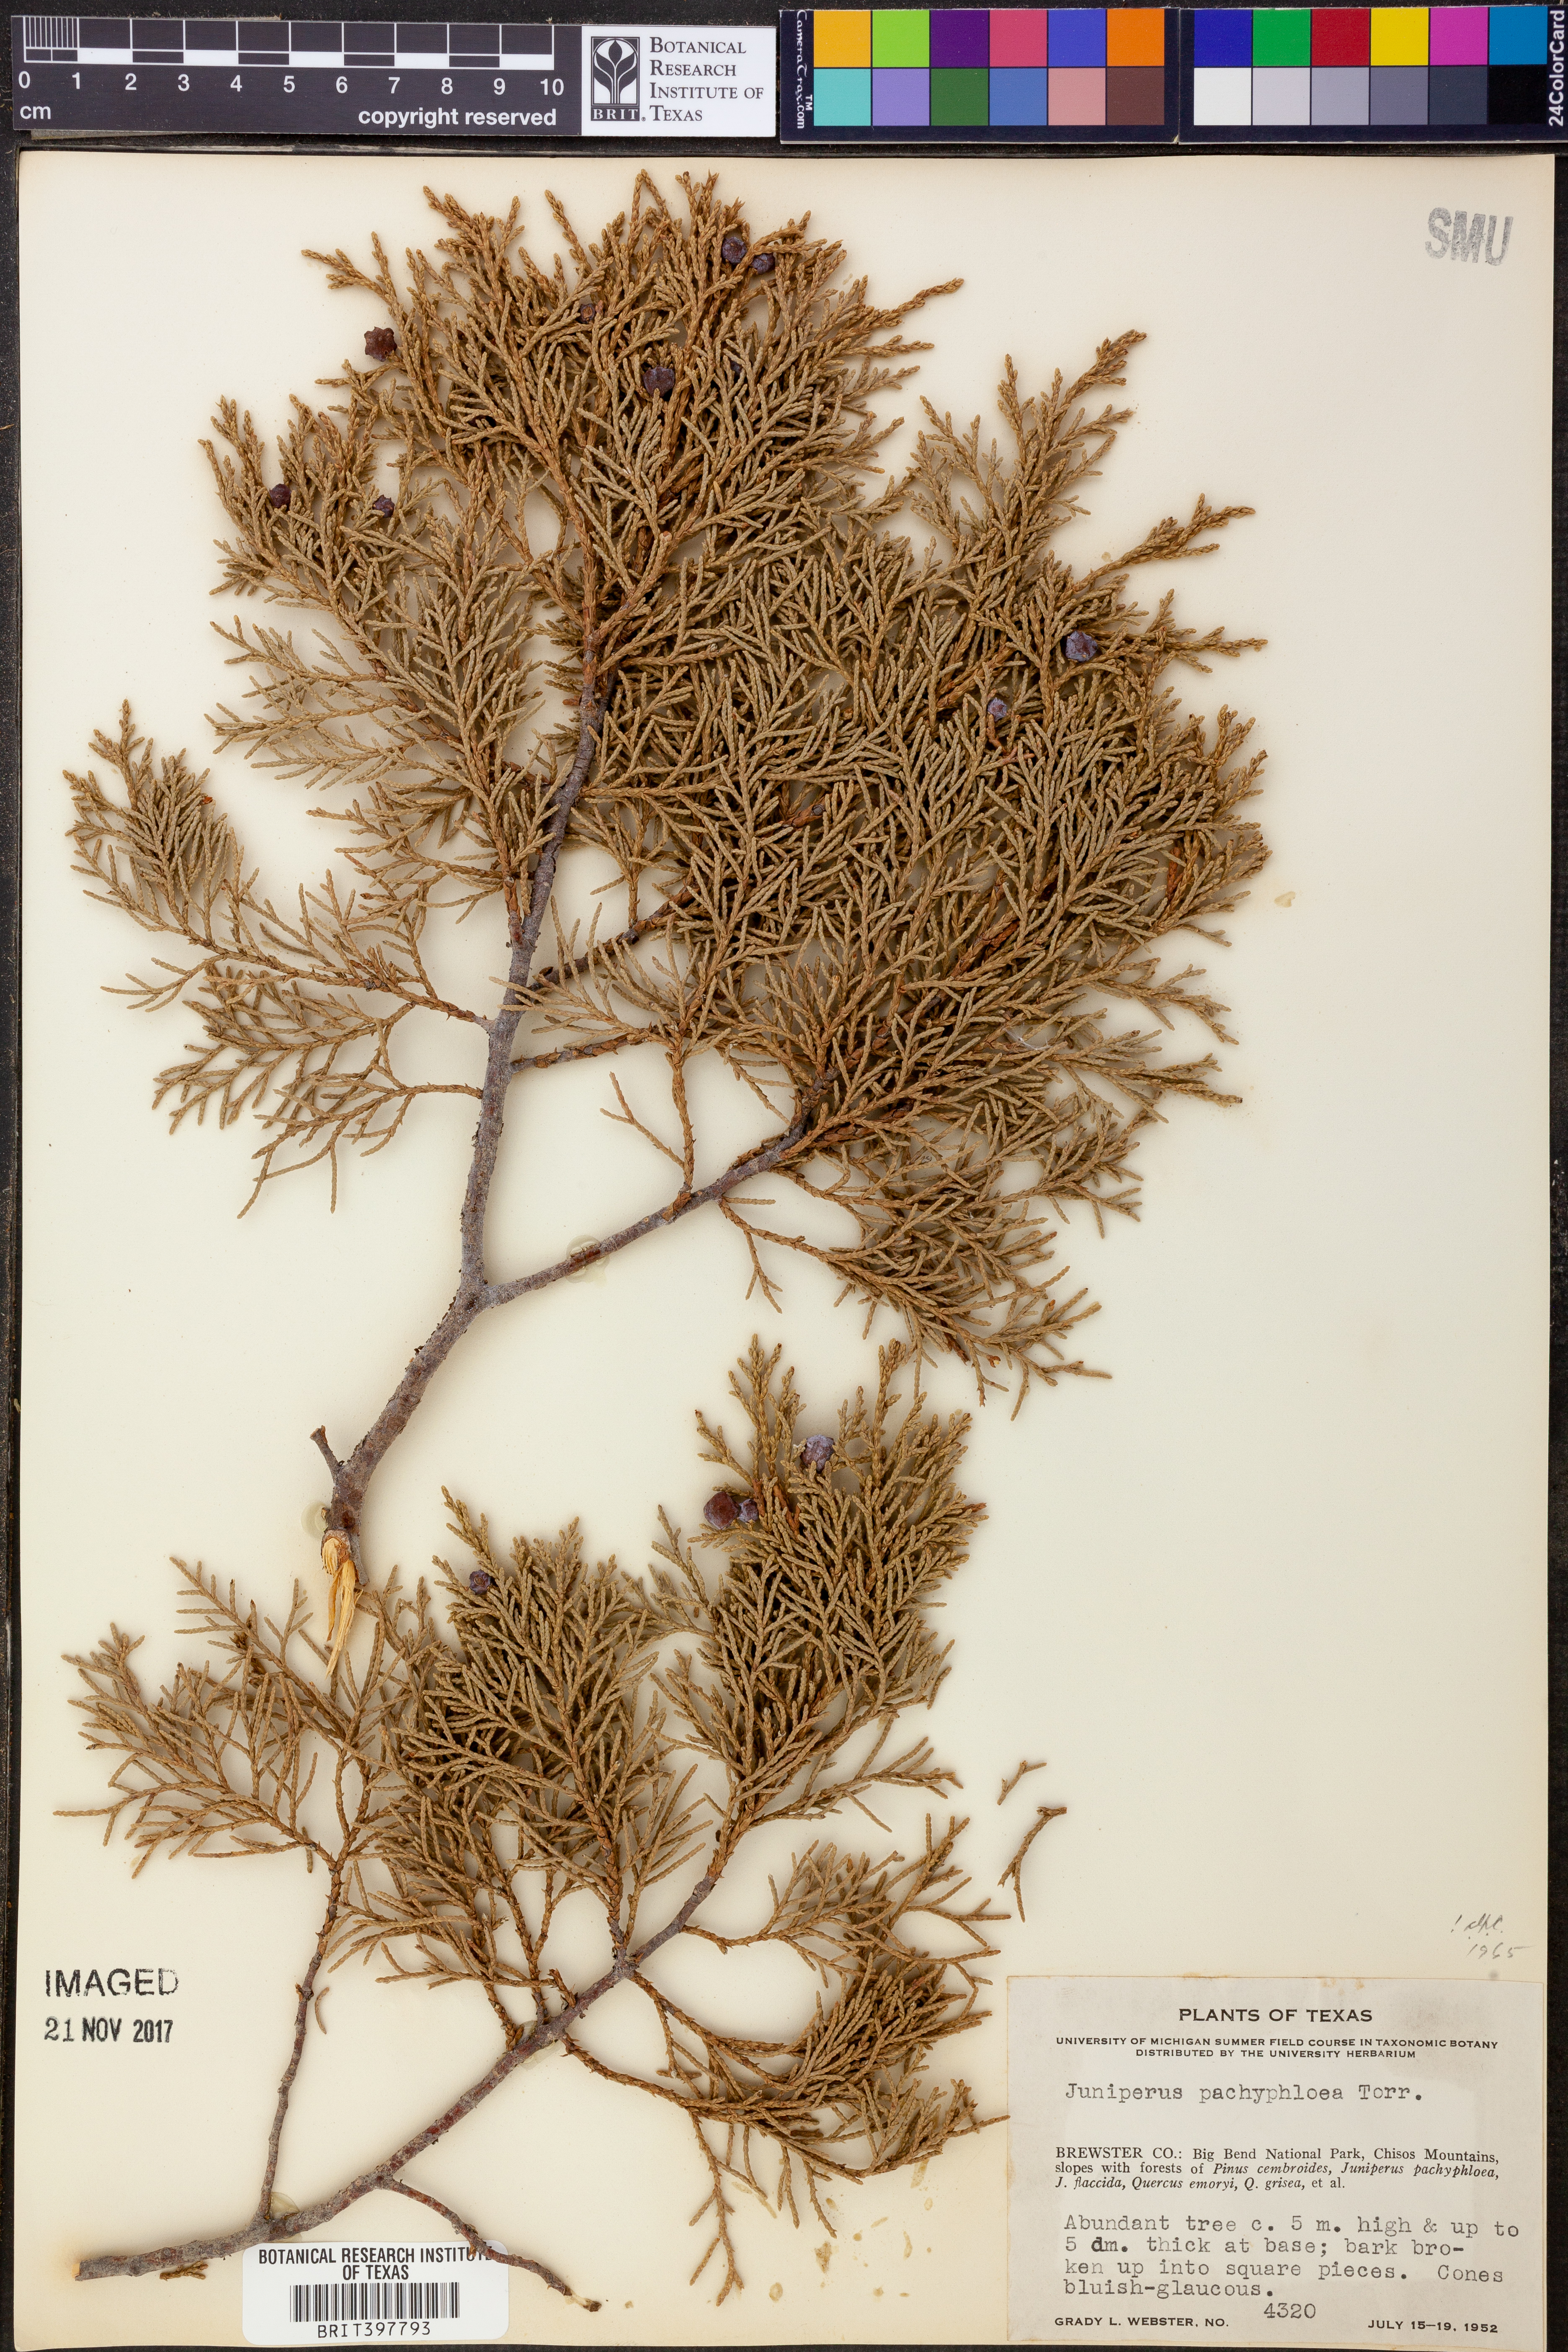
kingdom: Plantae
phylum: Tracheophyta
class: Pinopsida
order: Pinales
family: Cupressaceae
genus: Juniperus
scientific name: Juniperus deppeana
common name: Alligator juniper
